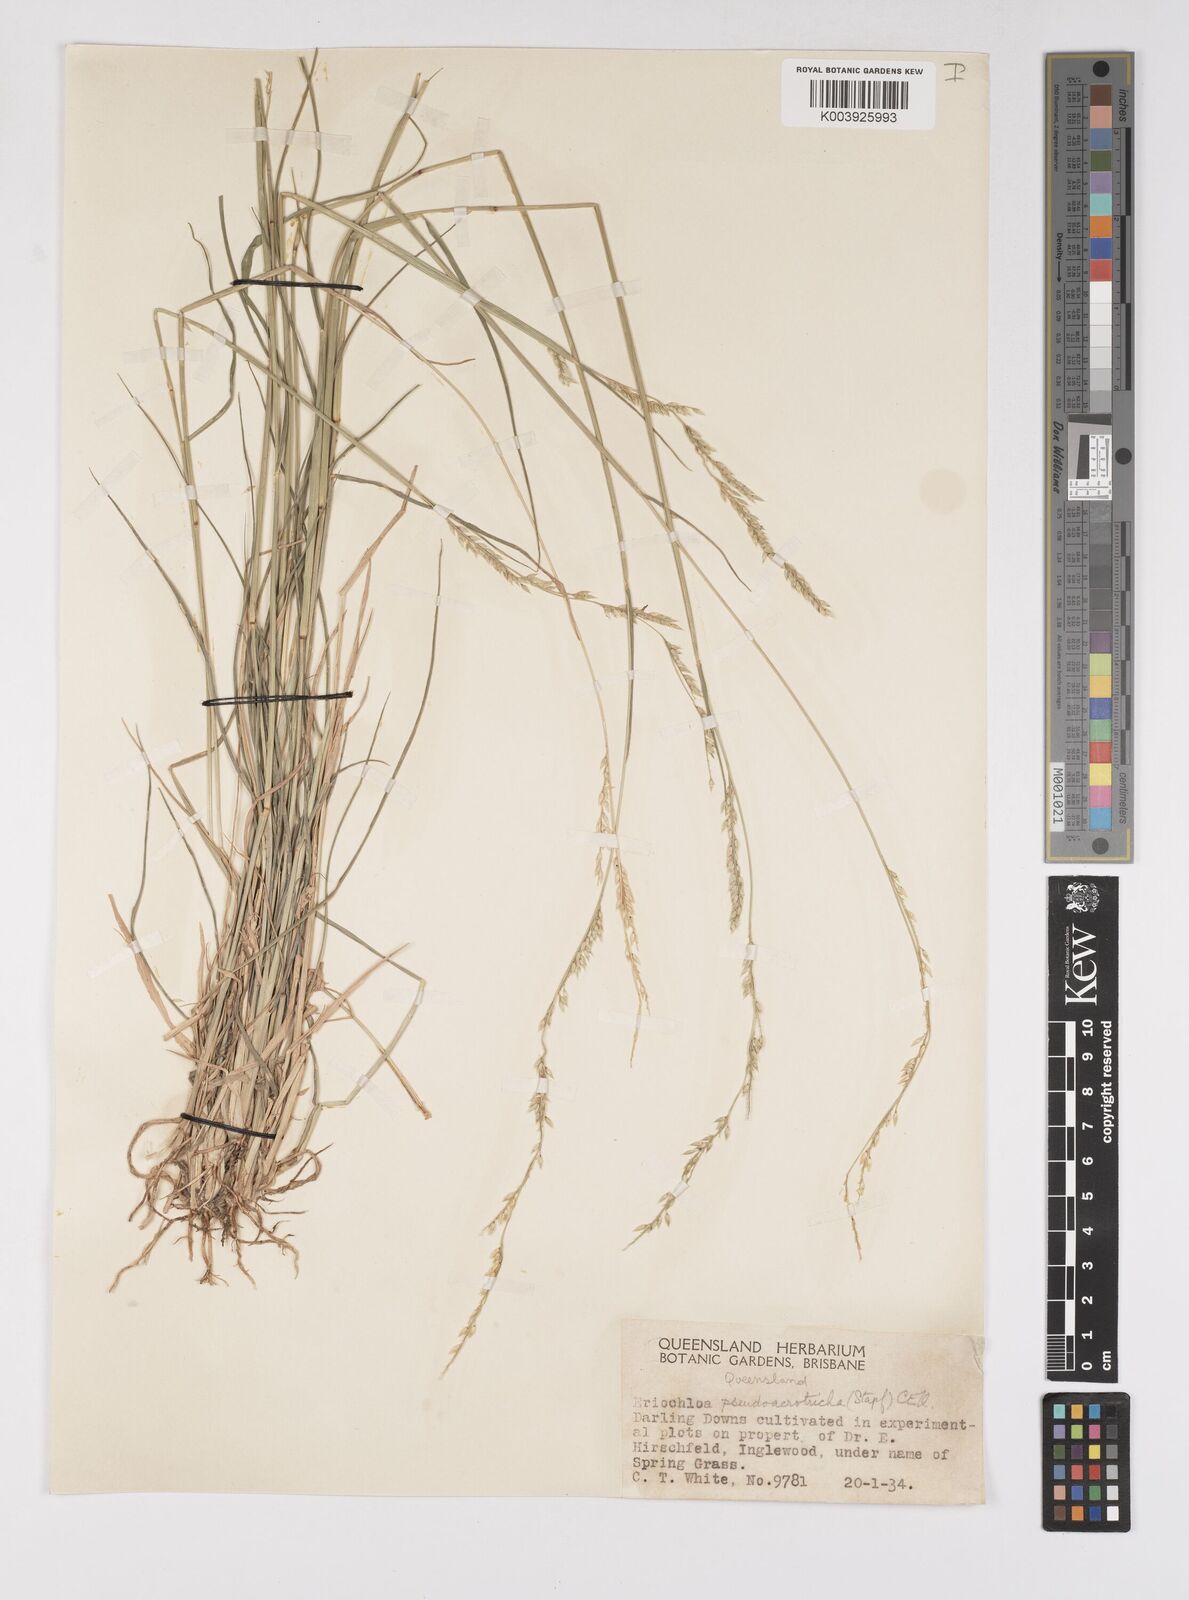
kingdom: Plantae
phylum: Tracheophyta
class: Liliopsida
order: Poales
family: Poaceae
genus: Eriochloa
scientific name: Eriochloa pseudoacrotricha
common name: Perennial cup-grass
